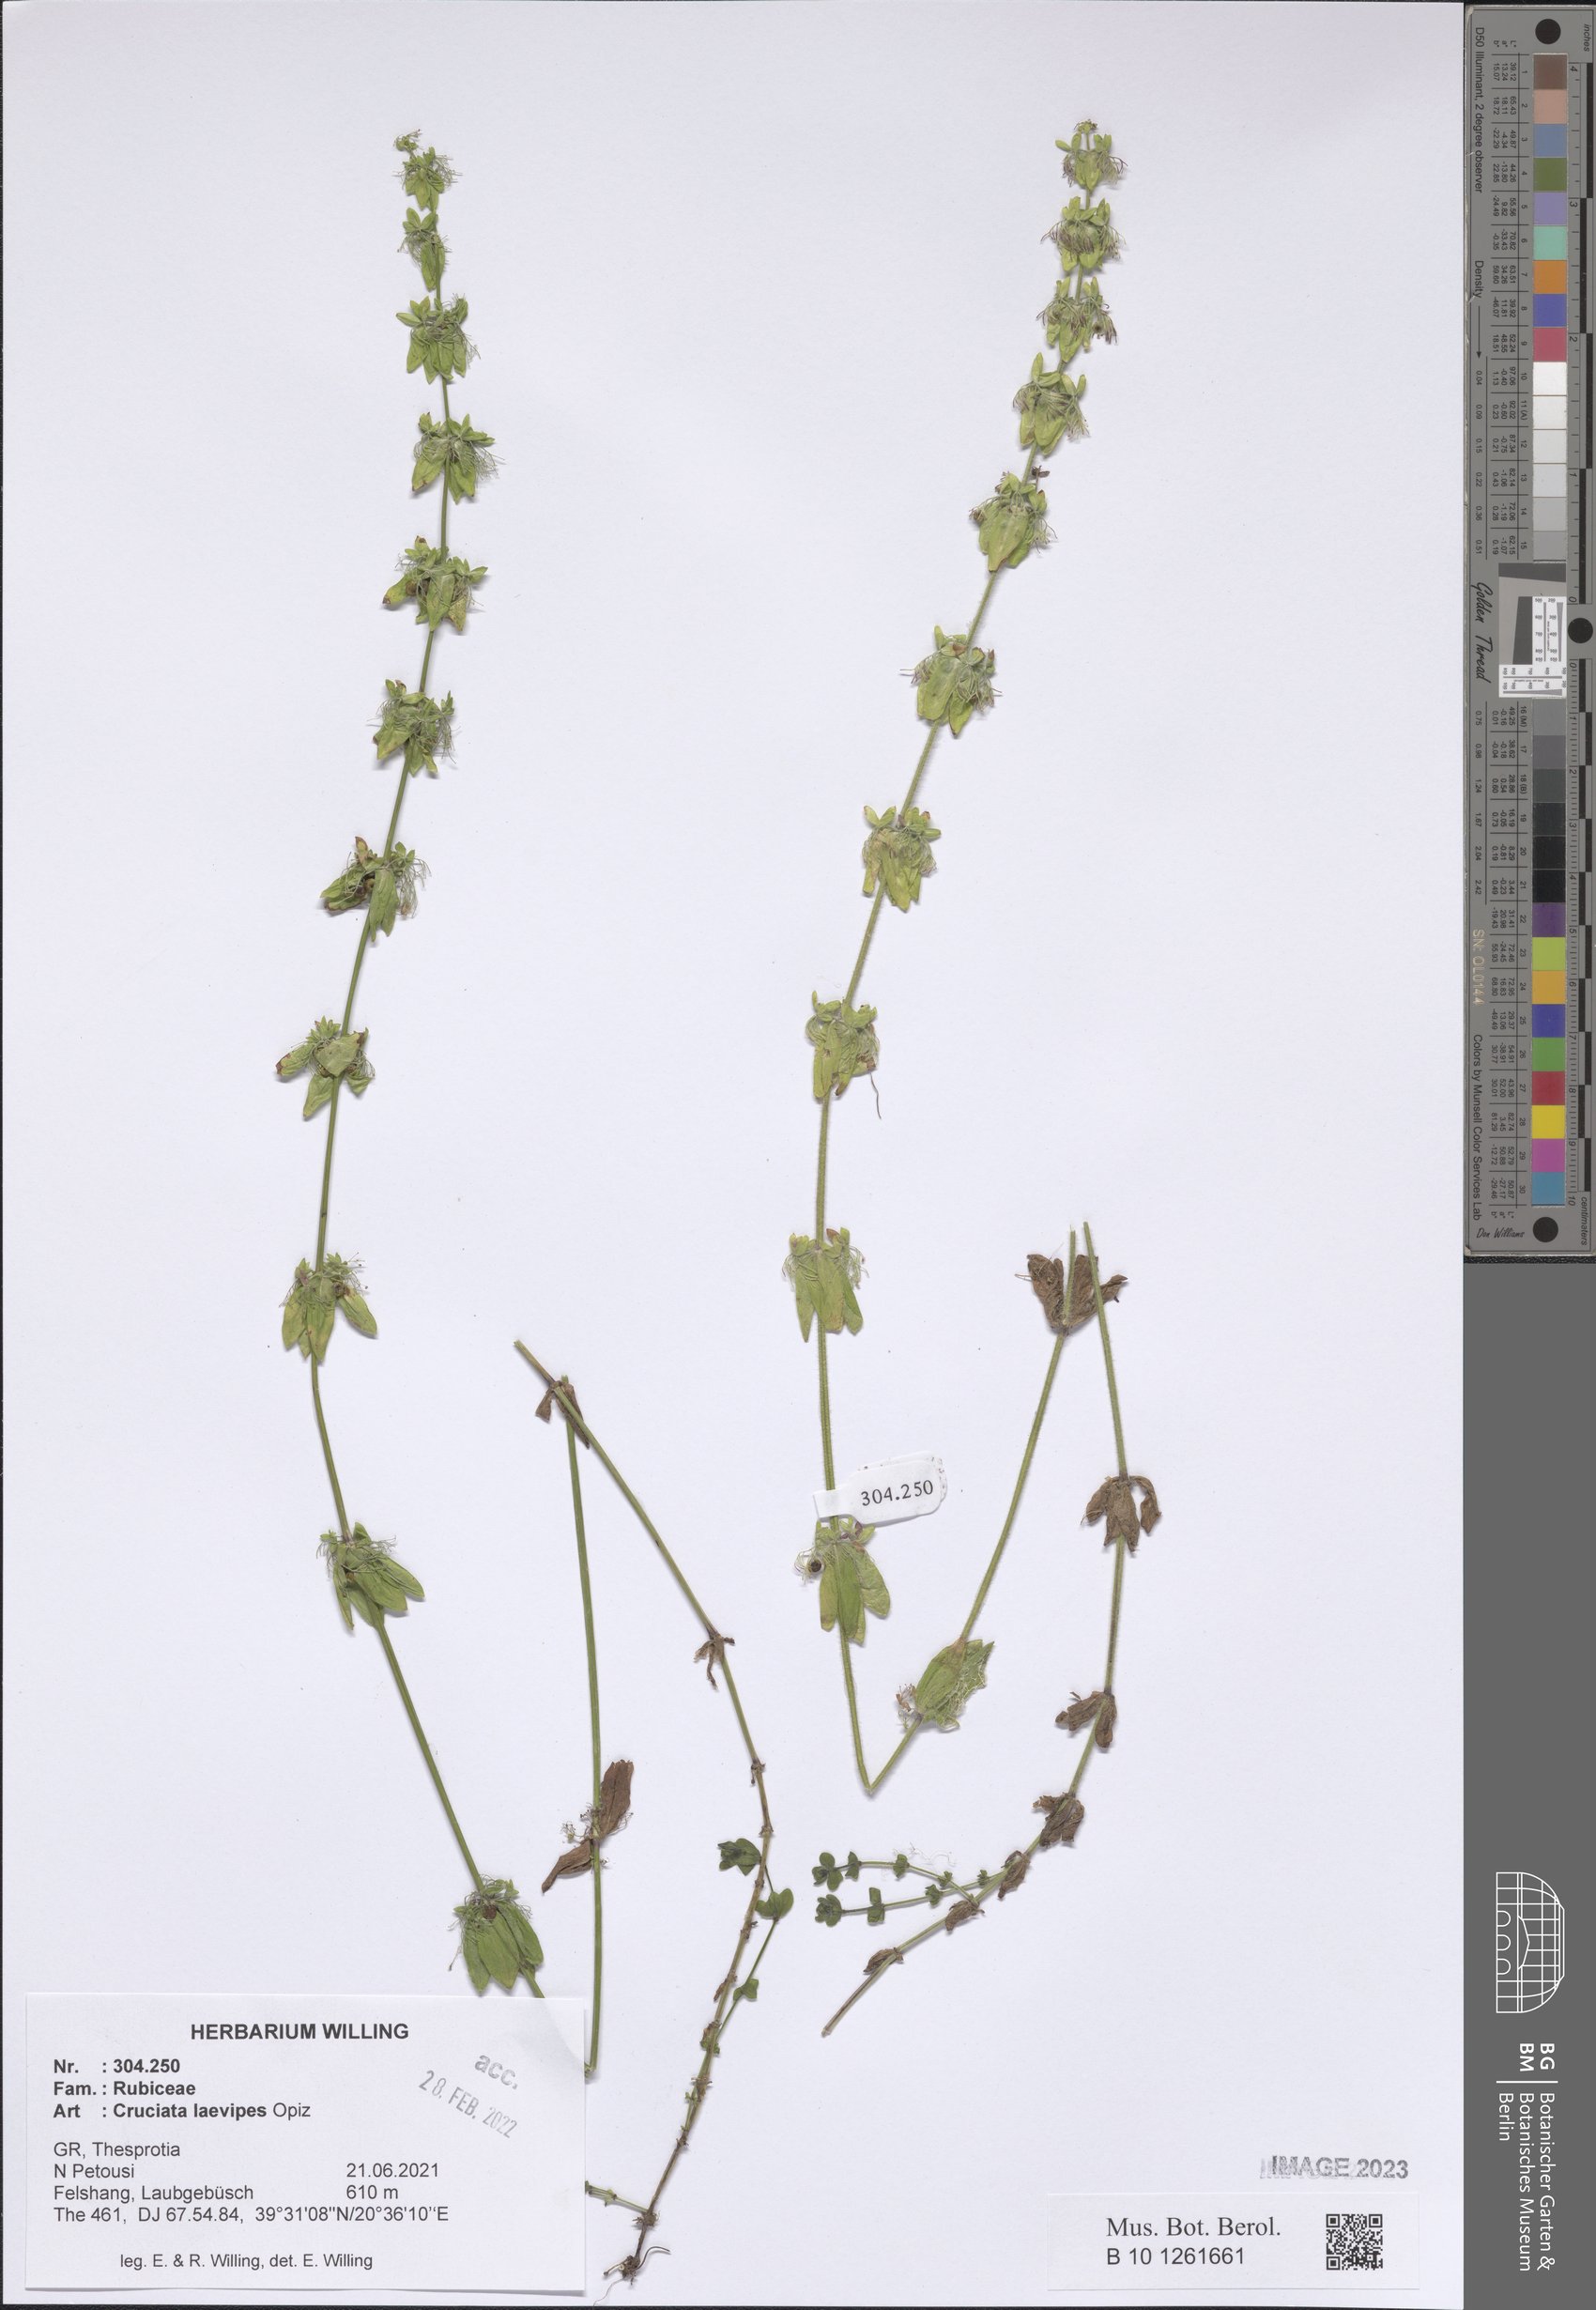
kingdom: Plantae
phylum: Tracheophyta
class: Magnoliopsida
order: Gentianales
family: Rubiaceae
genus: Cruciata
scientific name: Cruciata laevipes
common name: Crosswort
